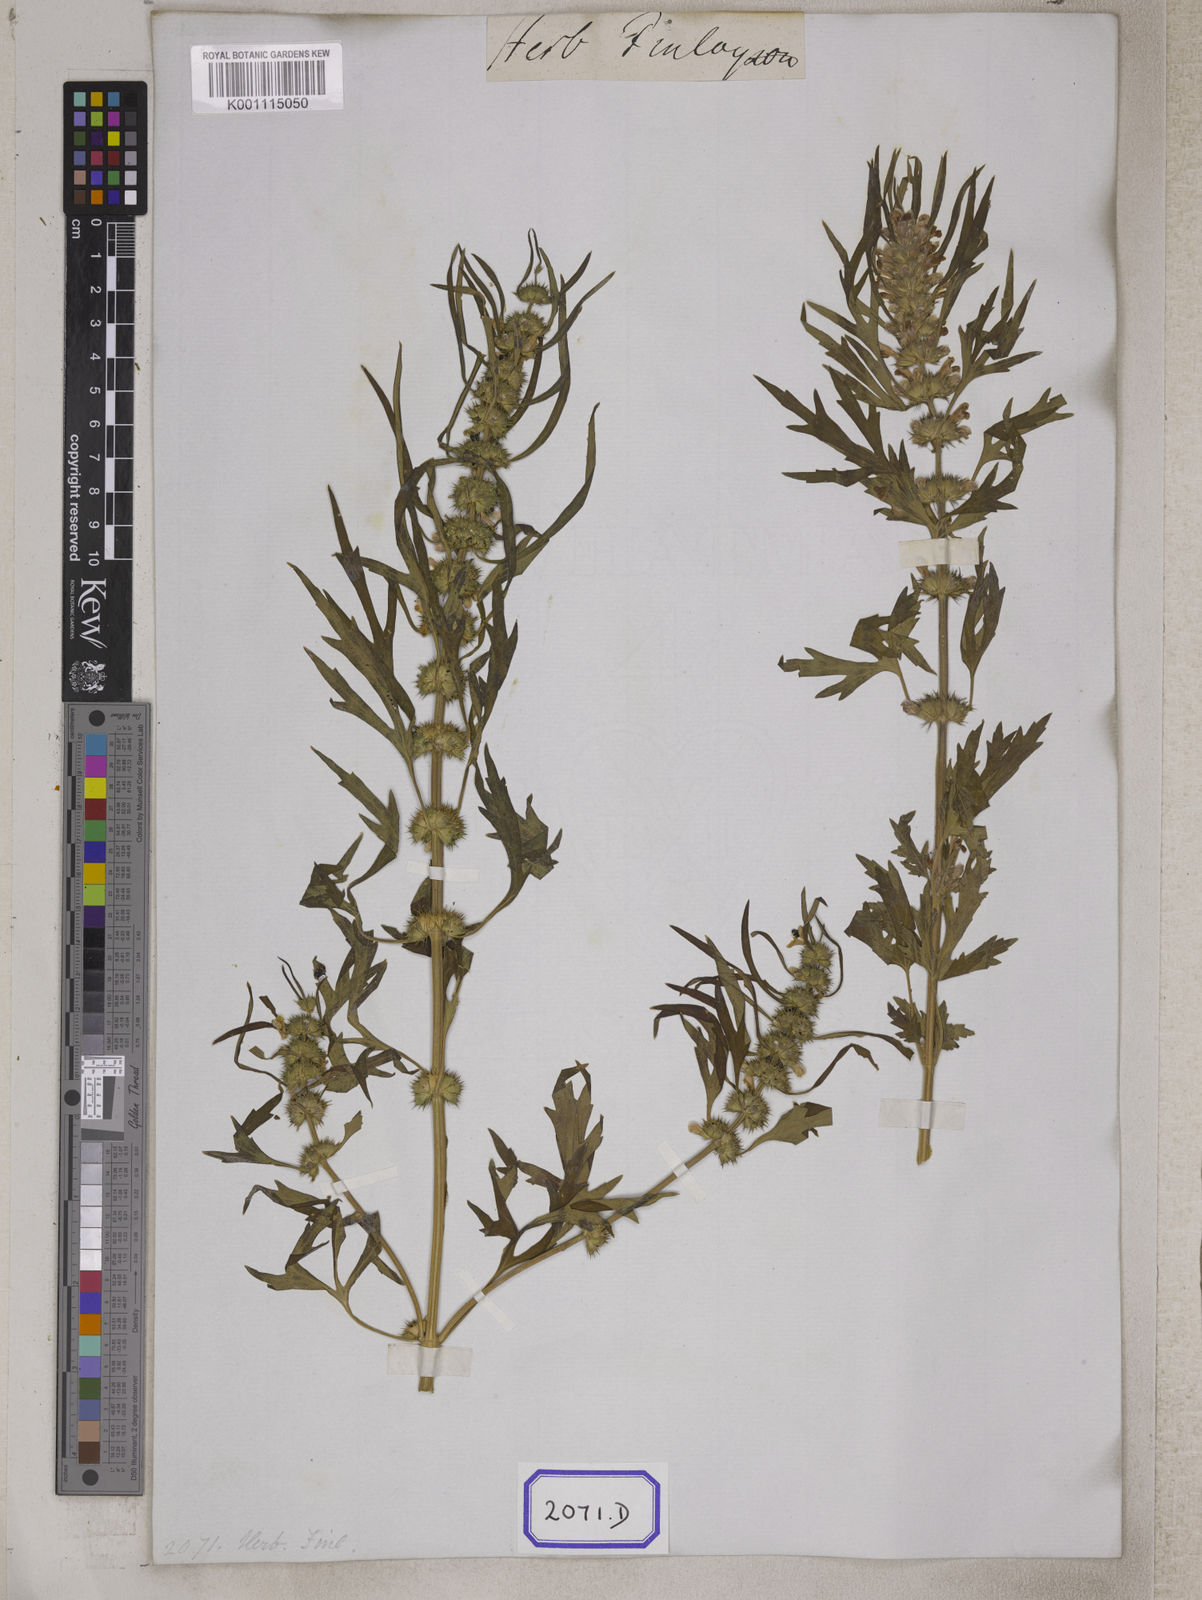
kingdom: Plantae
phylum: Tracheophyta
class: Magnoliopsida
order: Lamiales
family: Lamiaceae
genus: Leonurus
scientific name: Leonurus sibiricus
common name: Honeyweed
